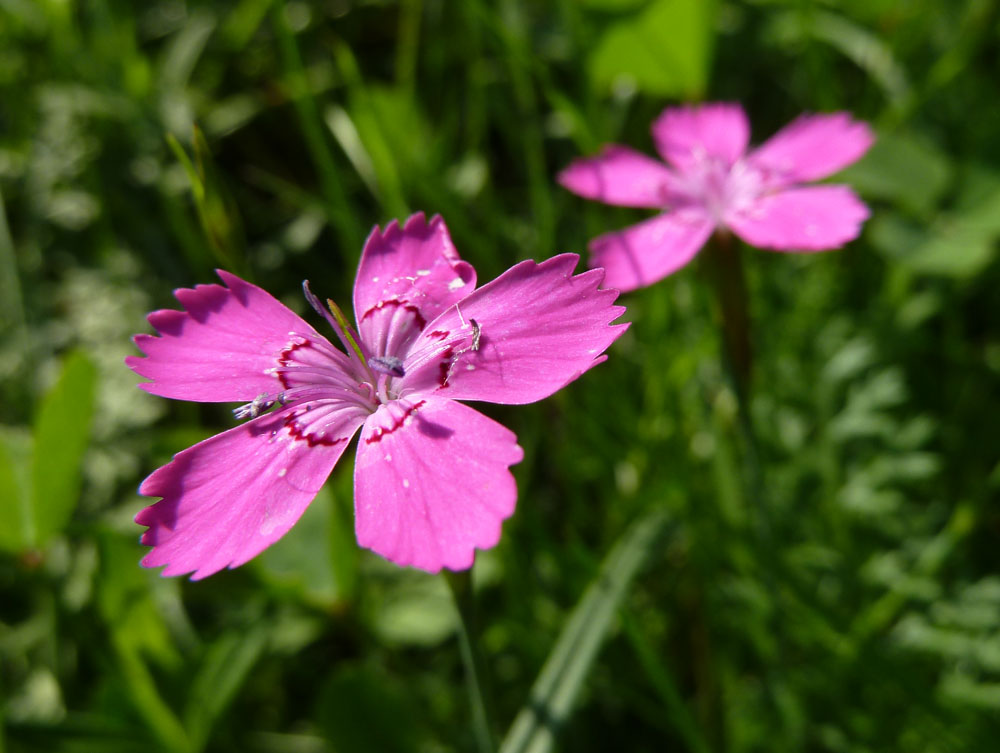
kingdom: Plantae
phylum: Tracheophyta
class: Magnoliopsida
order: Caryophyllales
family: Caryophyllaceae
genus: Dianthus
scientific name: Dianthus deltoides
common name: Maiden pink
